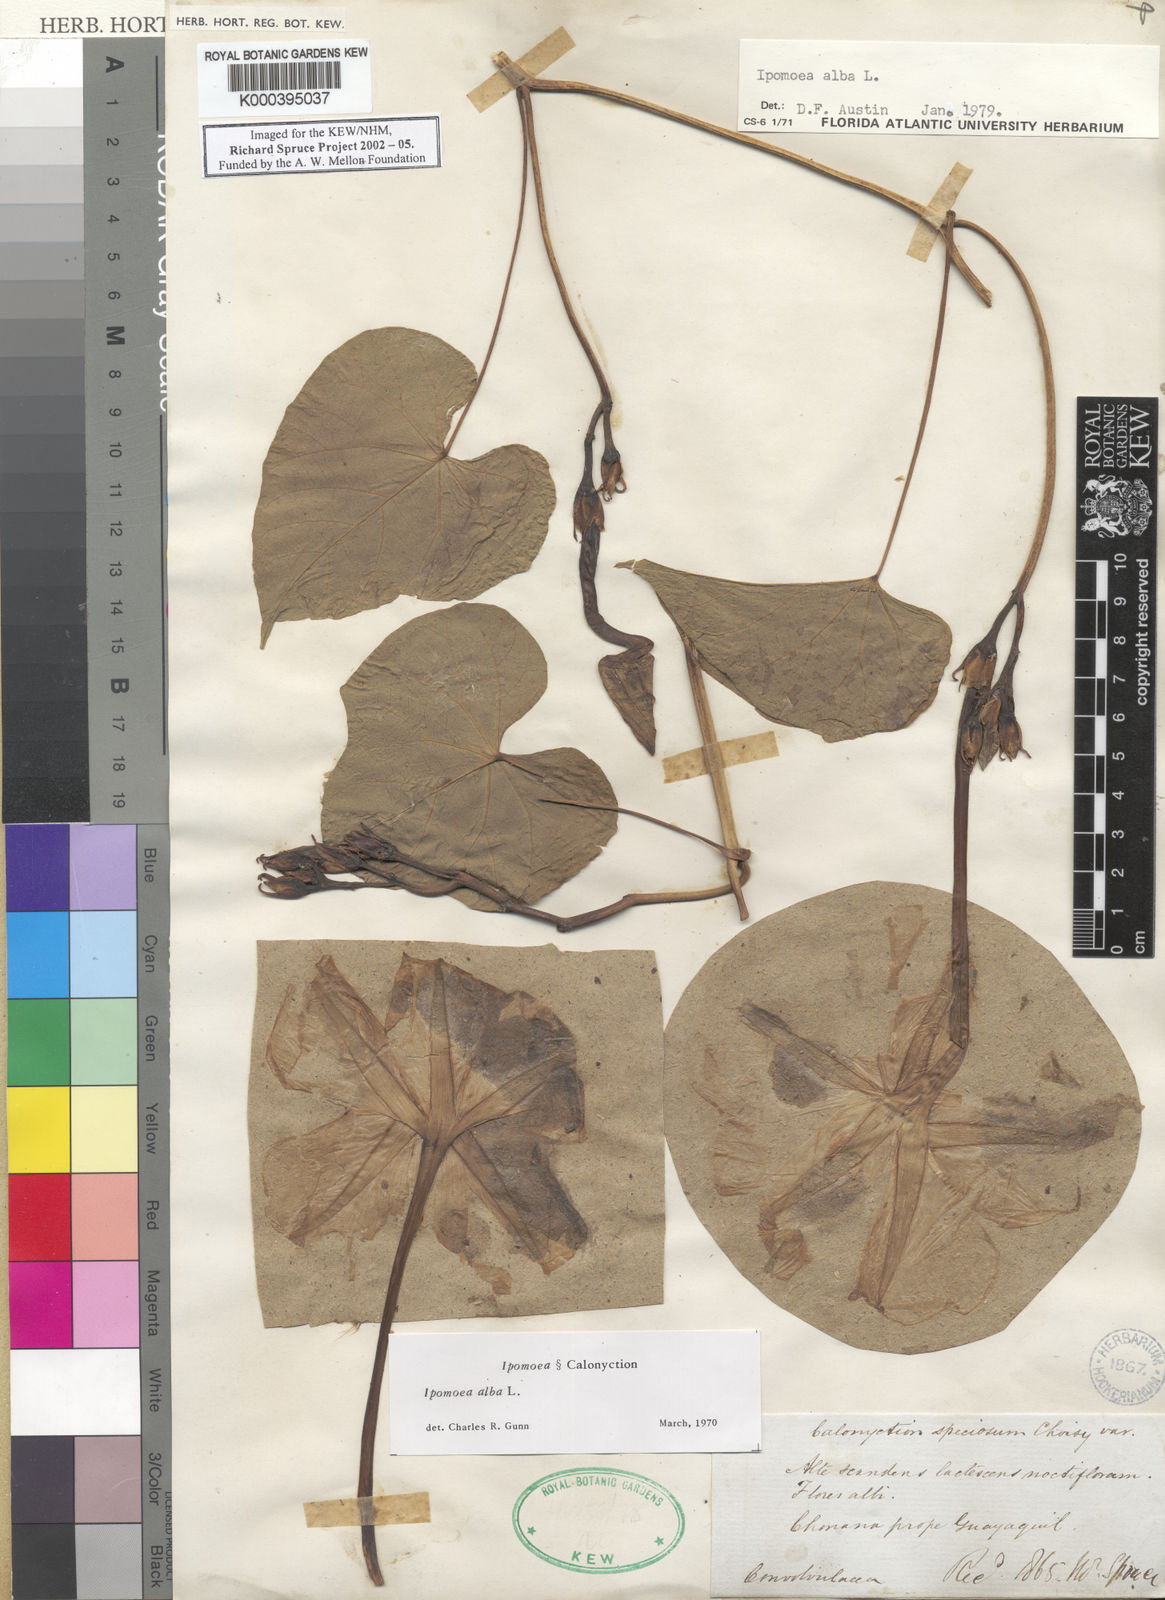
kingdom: Plantae
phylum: Tracheophyta
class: Magnoliopsida
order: Solanales
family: Convolvulaceae
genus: Ipomoea
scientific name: Ipomoea alba
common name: Moonflower
